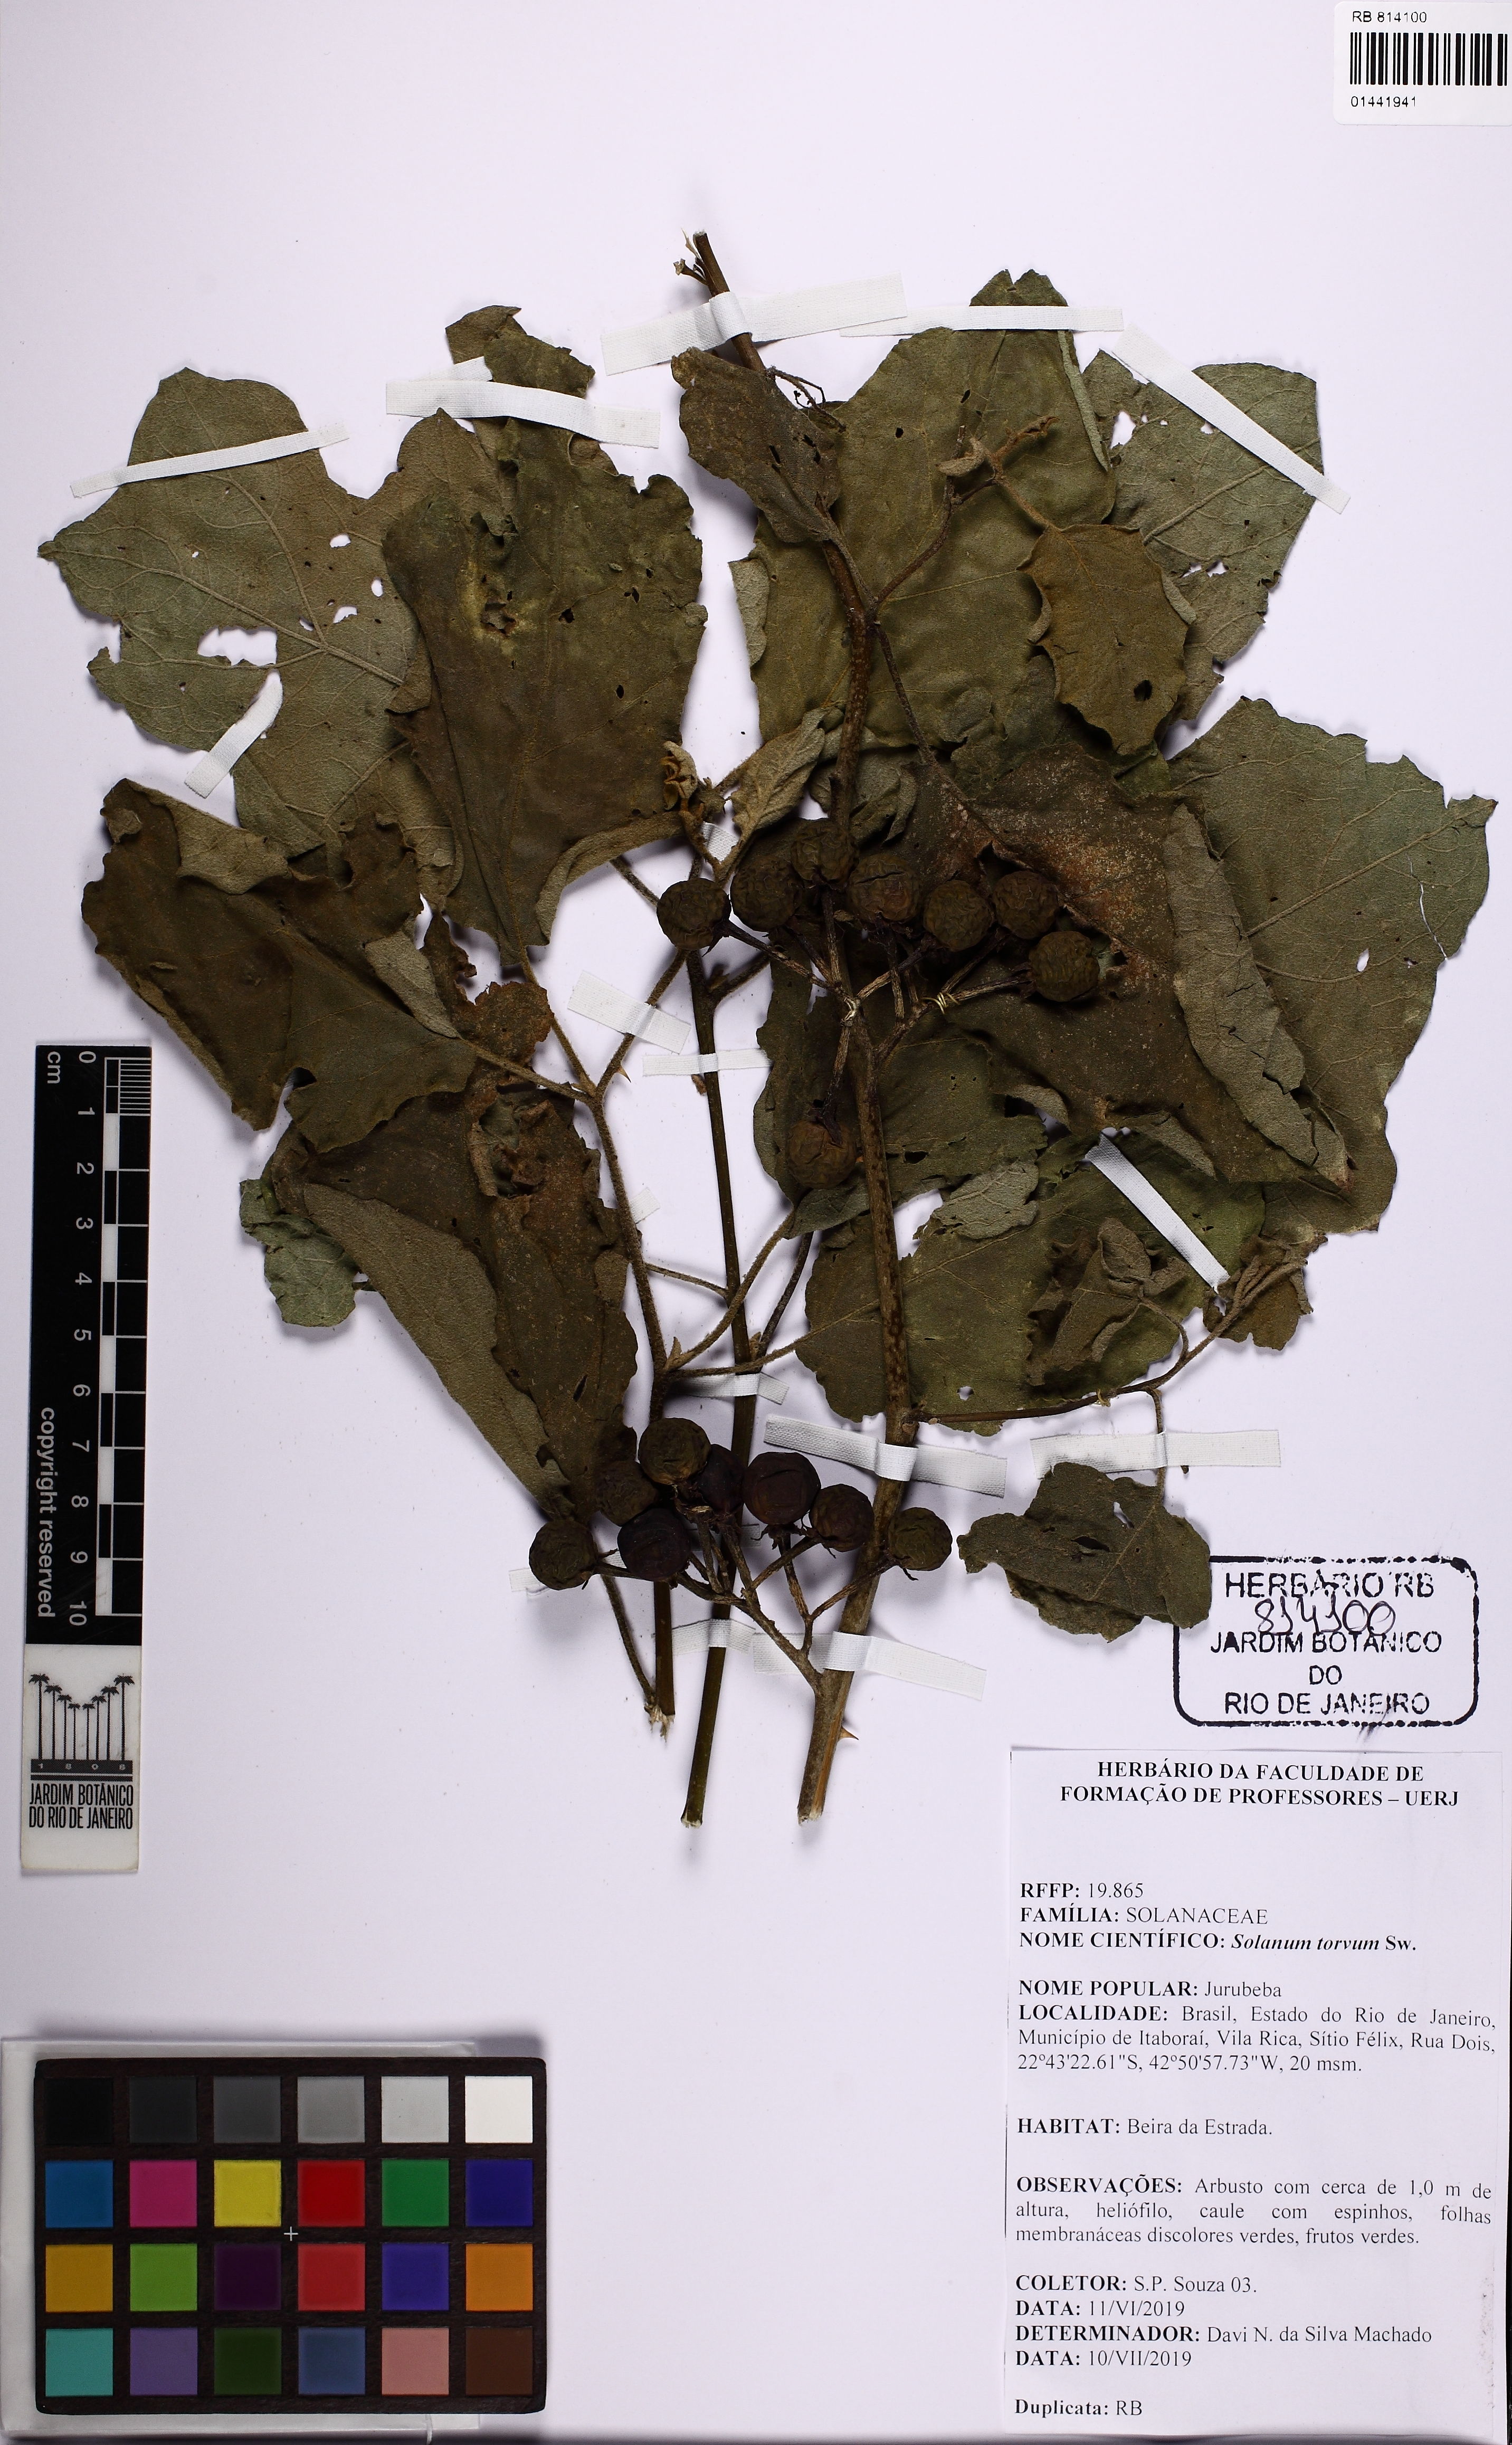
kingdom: Plantae
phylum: Tracheophyta
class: Magnoliopsida
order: Solanales
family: Solanaceae
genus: Solanum
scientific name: Solanum torvum
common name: Turkey berry
